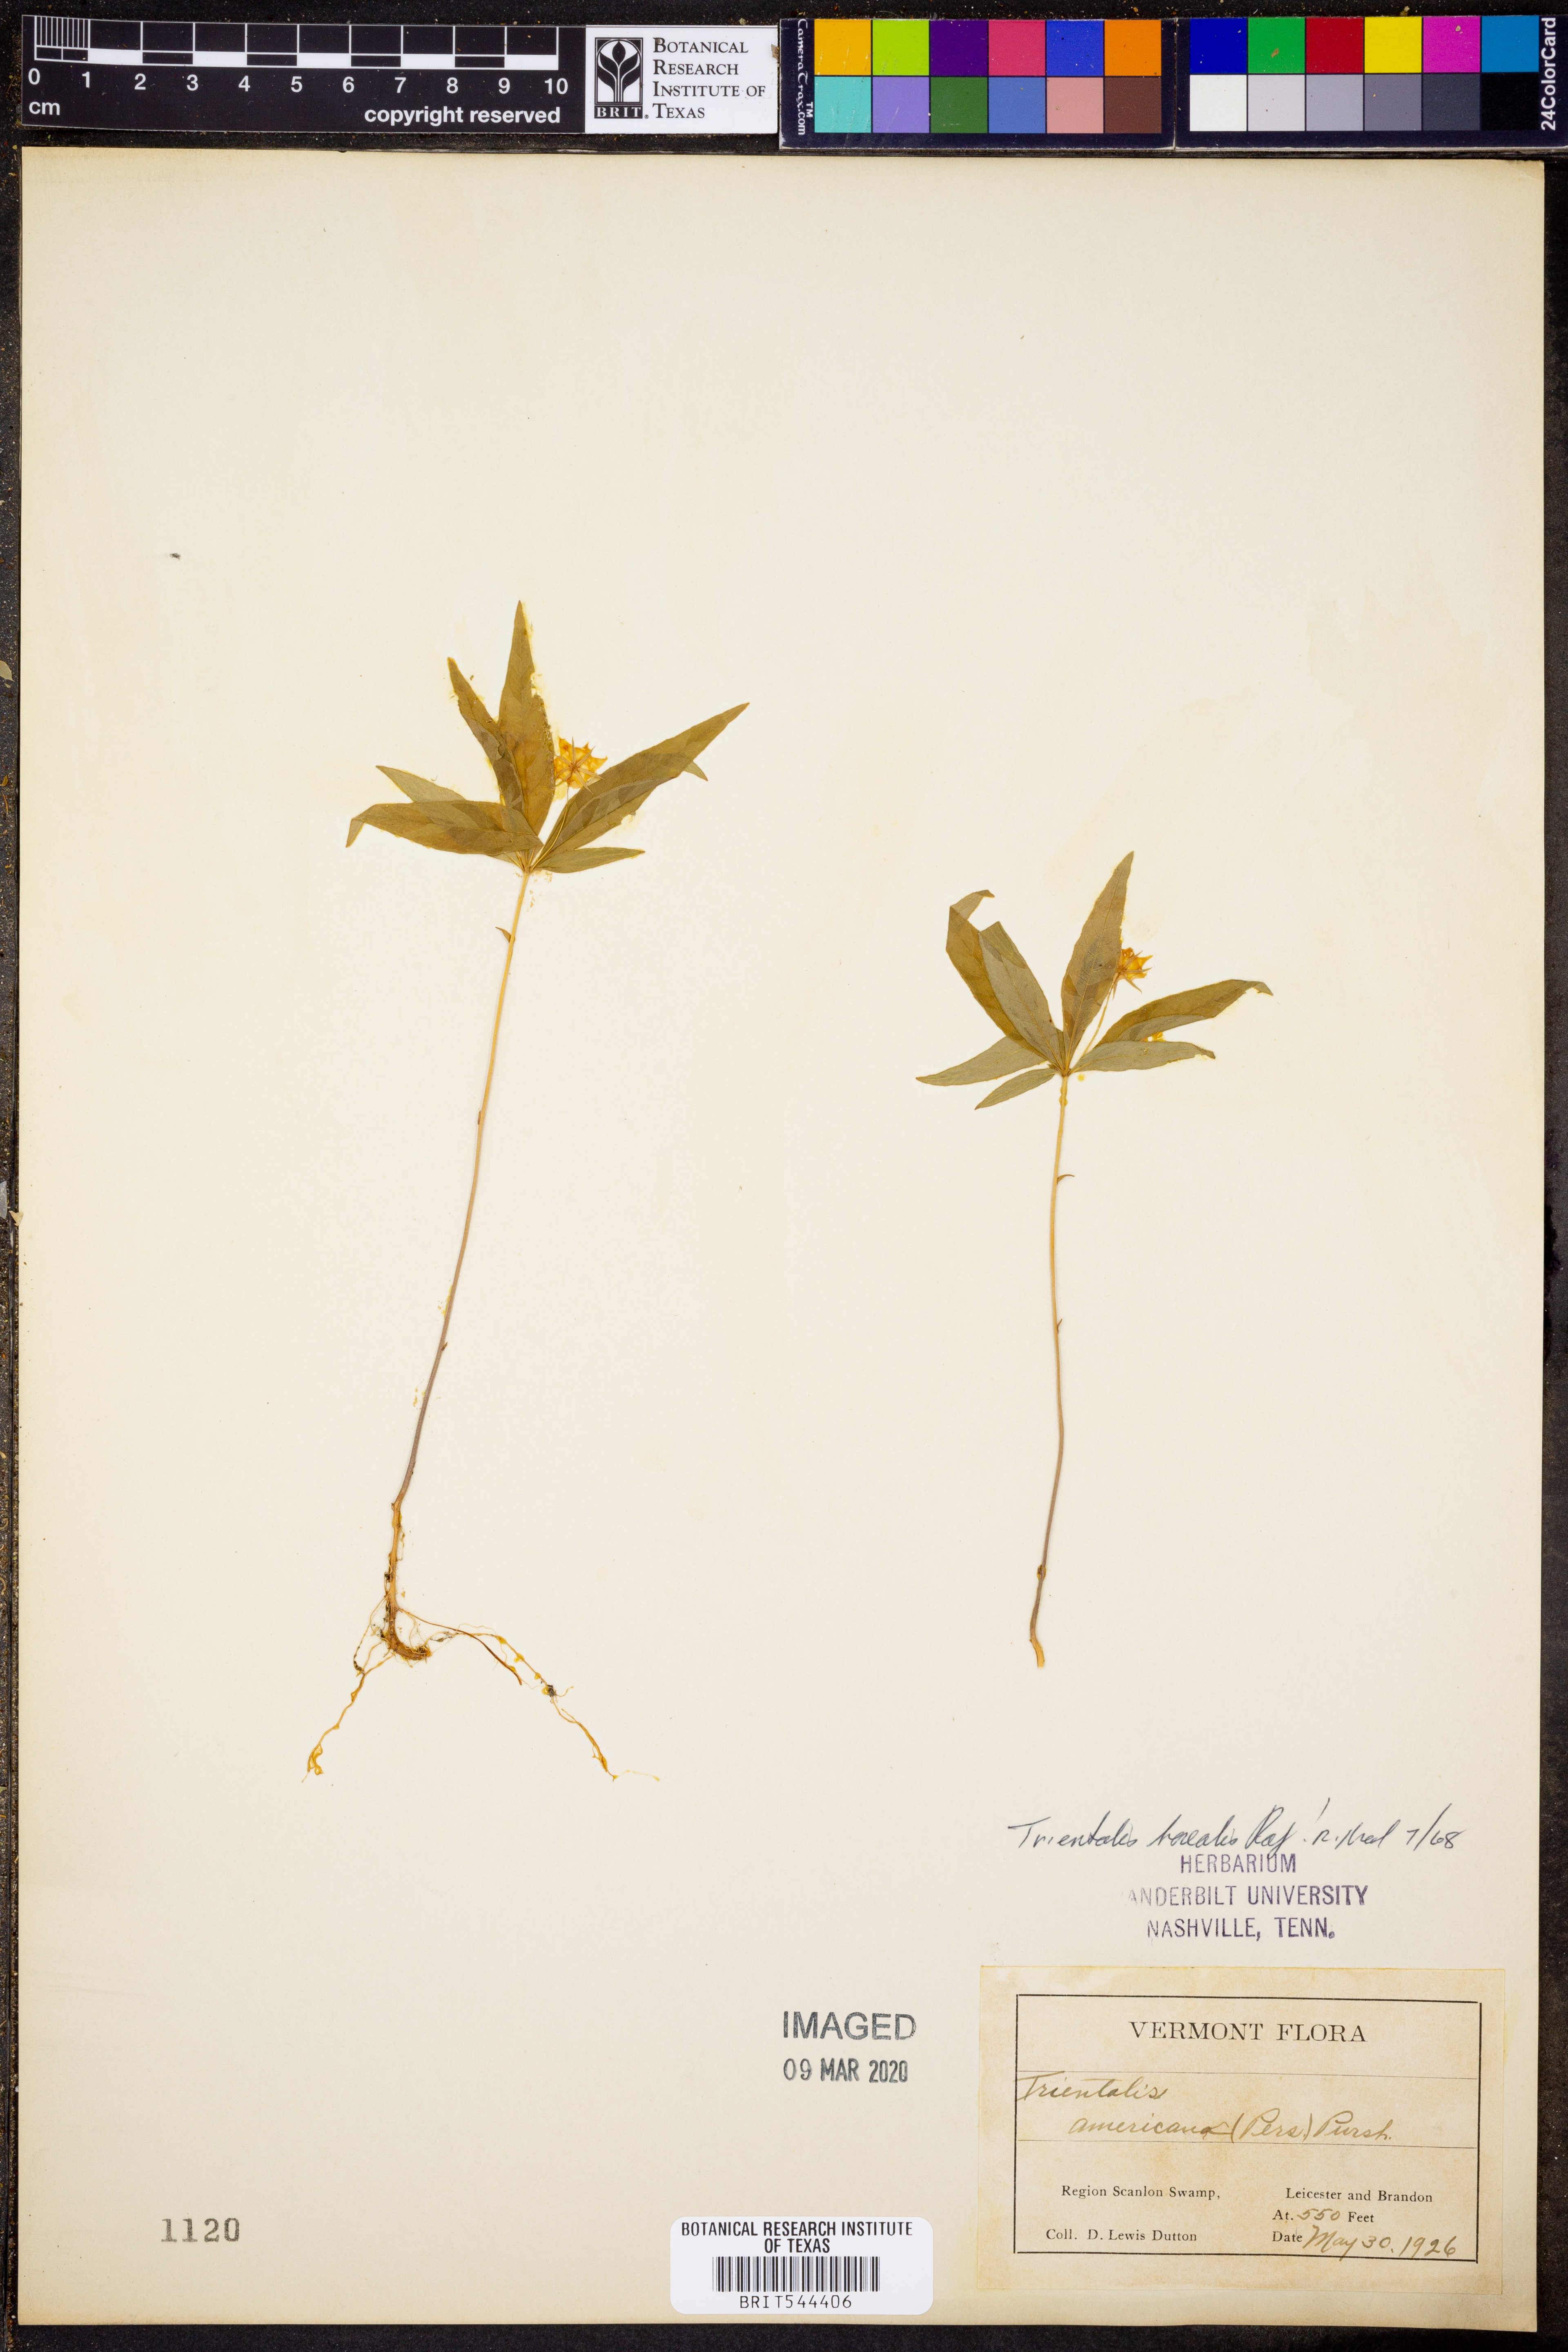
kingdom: Plantae
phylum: Tracheophyta
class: Magnoliopsida
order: Ericales
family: Primulaceae
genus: Lysimachia
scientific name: Lysimachia borealis
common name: American starflower
